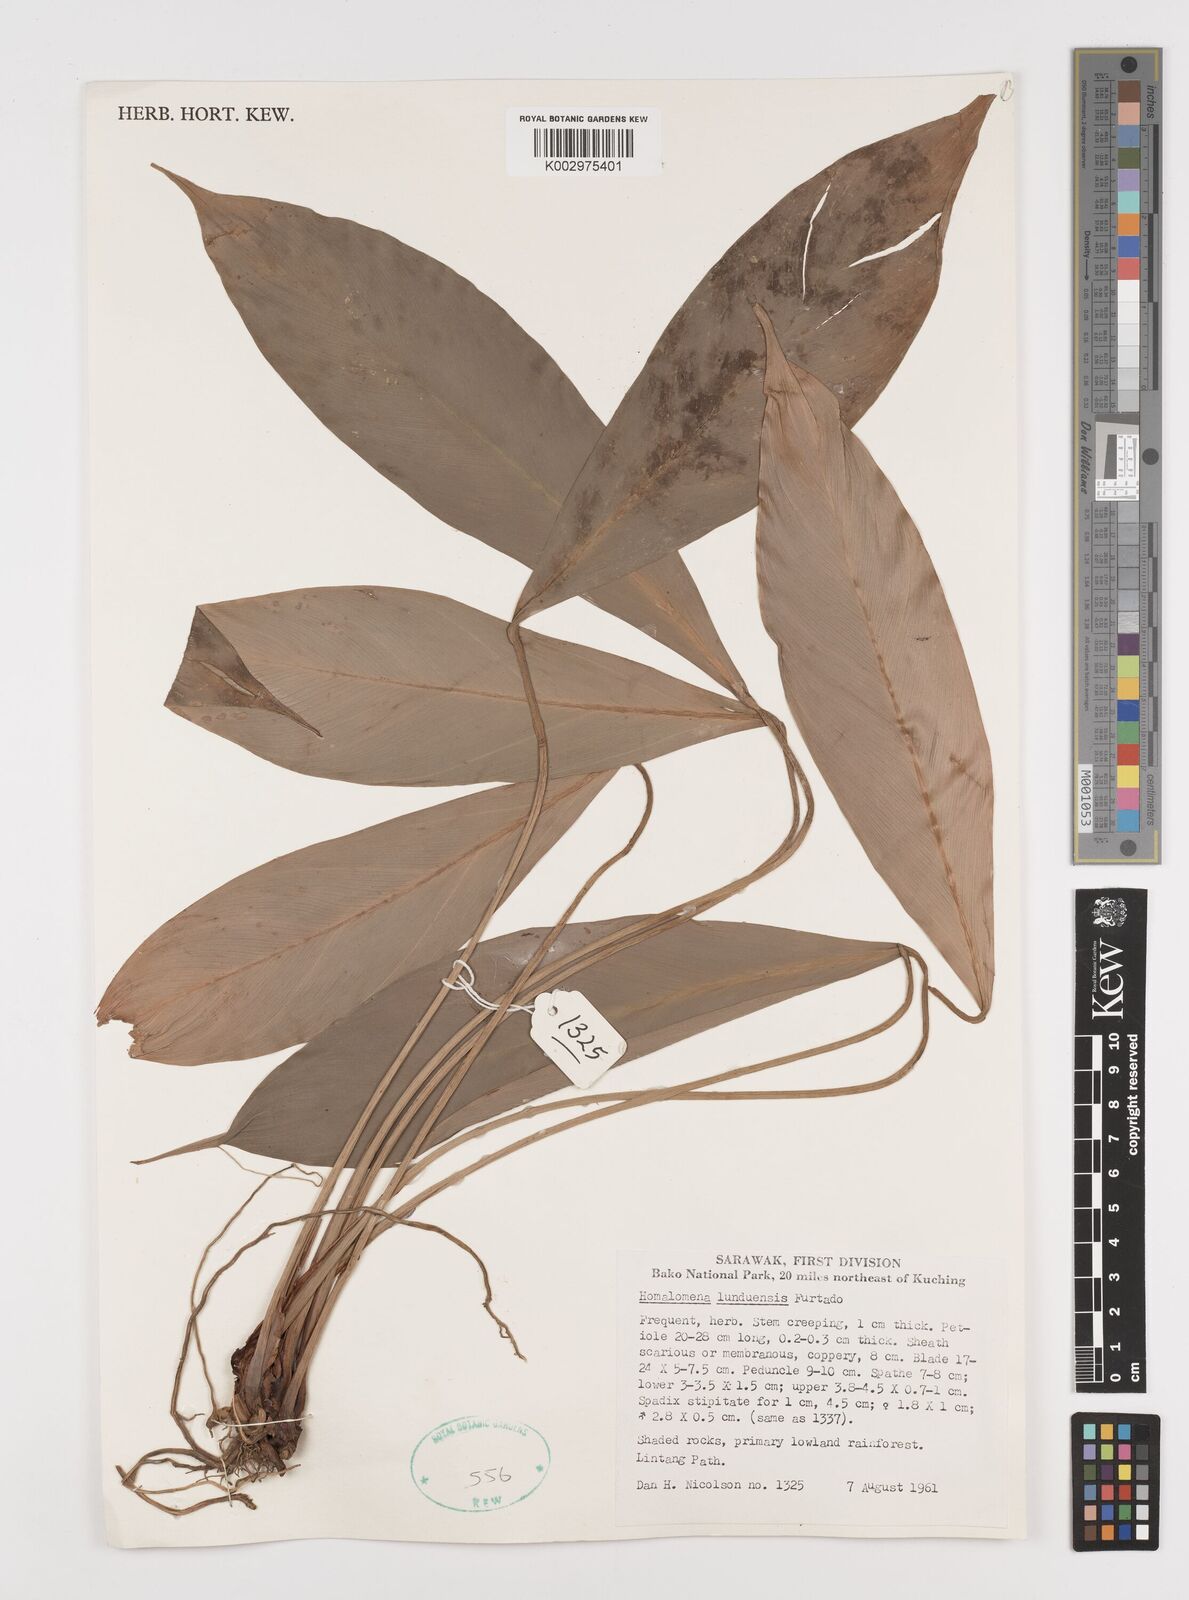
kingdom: Plantae
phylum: Tracheophyta
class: Liliopsida
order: Alismatales
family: Araceae
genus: Homalomena
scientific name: Homalomena havilandii
